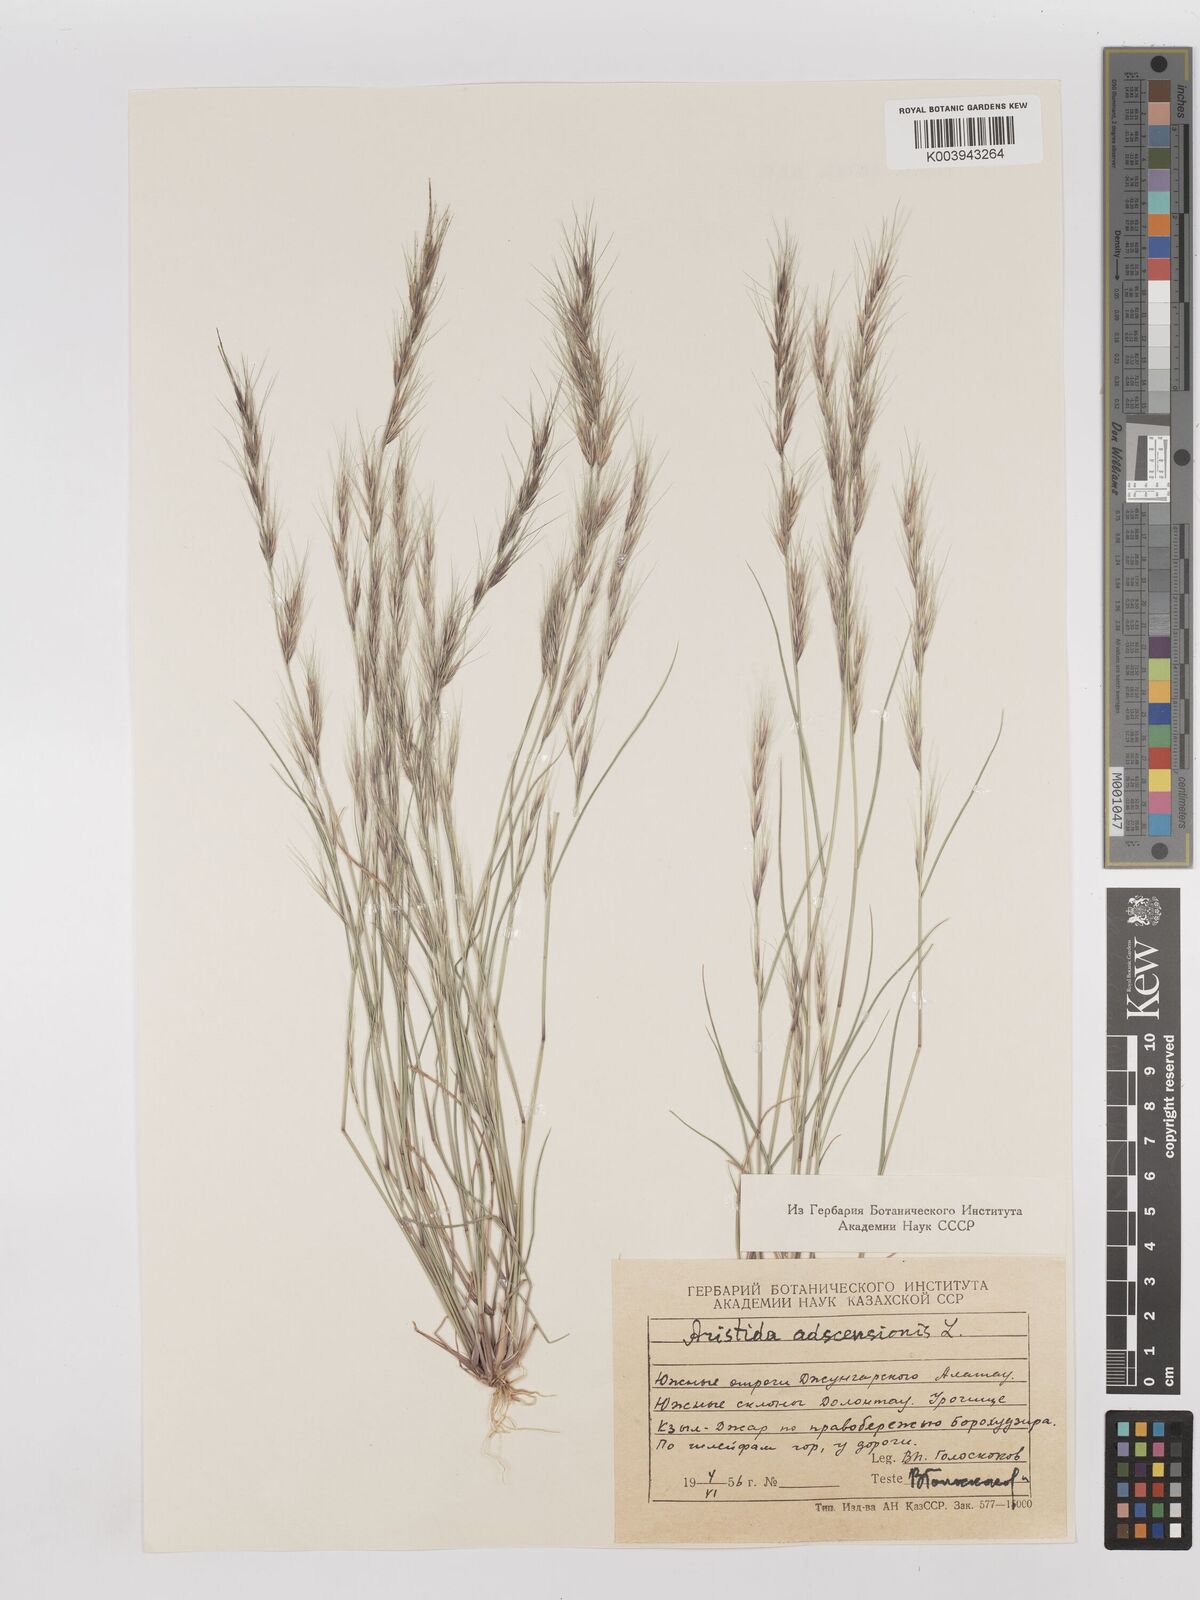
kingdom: Plantae
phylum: Tracheophyta
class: Liliopsida
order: Poales
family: Poaceae
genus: Aristida
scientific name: Aristida adscensionis
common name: Sixweeks threeawn
